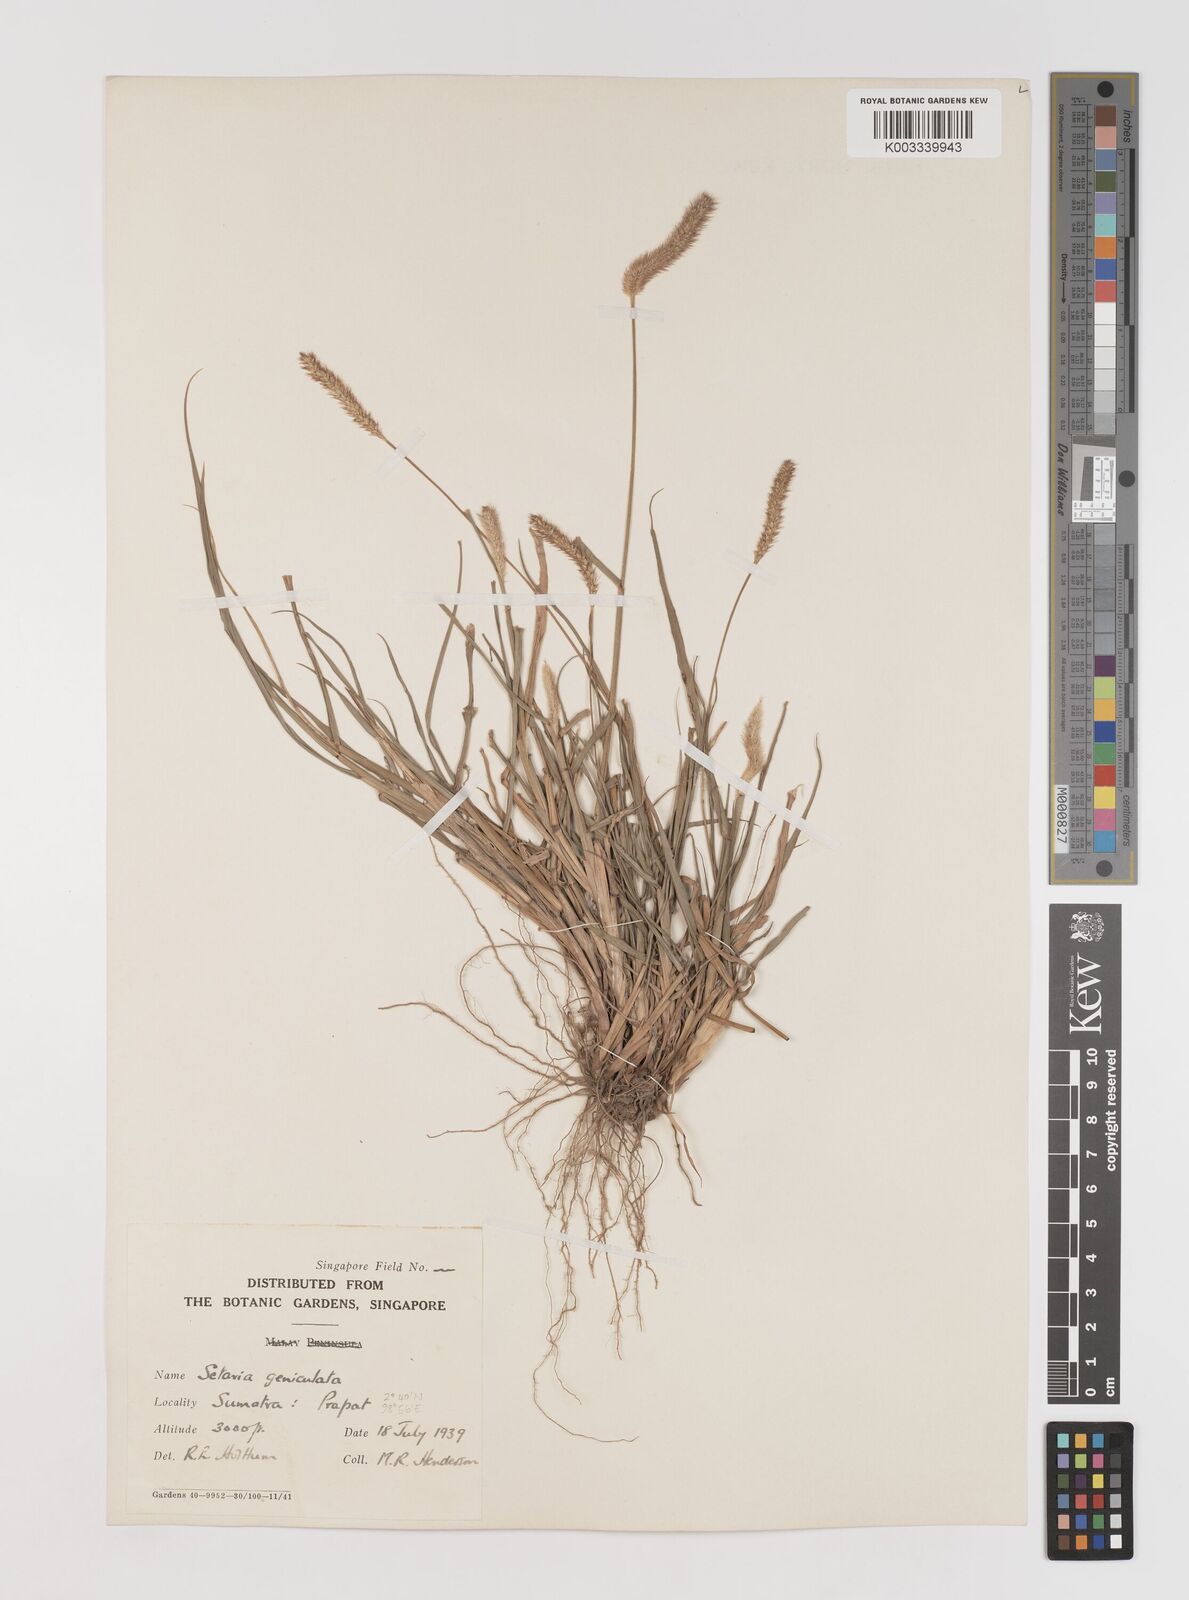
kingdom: Plantae
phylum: Tracheophyta
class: Liliopsida
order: Poales
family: Poaceae
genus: Setaria
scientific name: Setaria parviflora
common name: Knotroot bristle-grass
